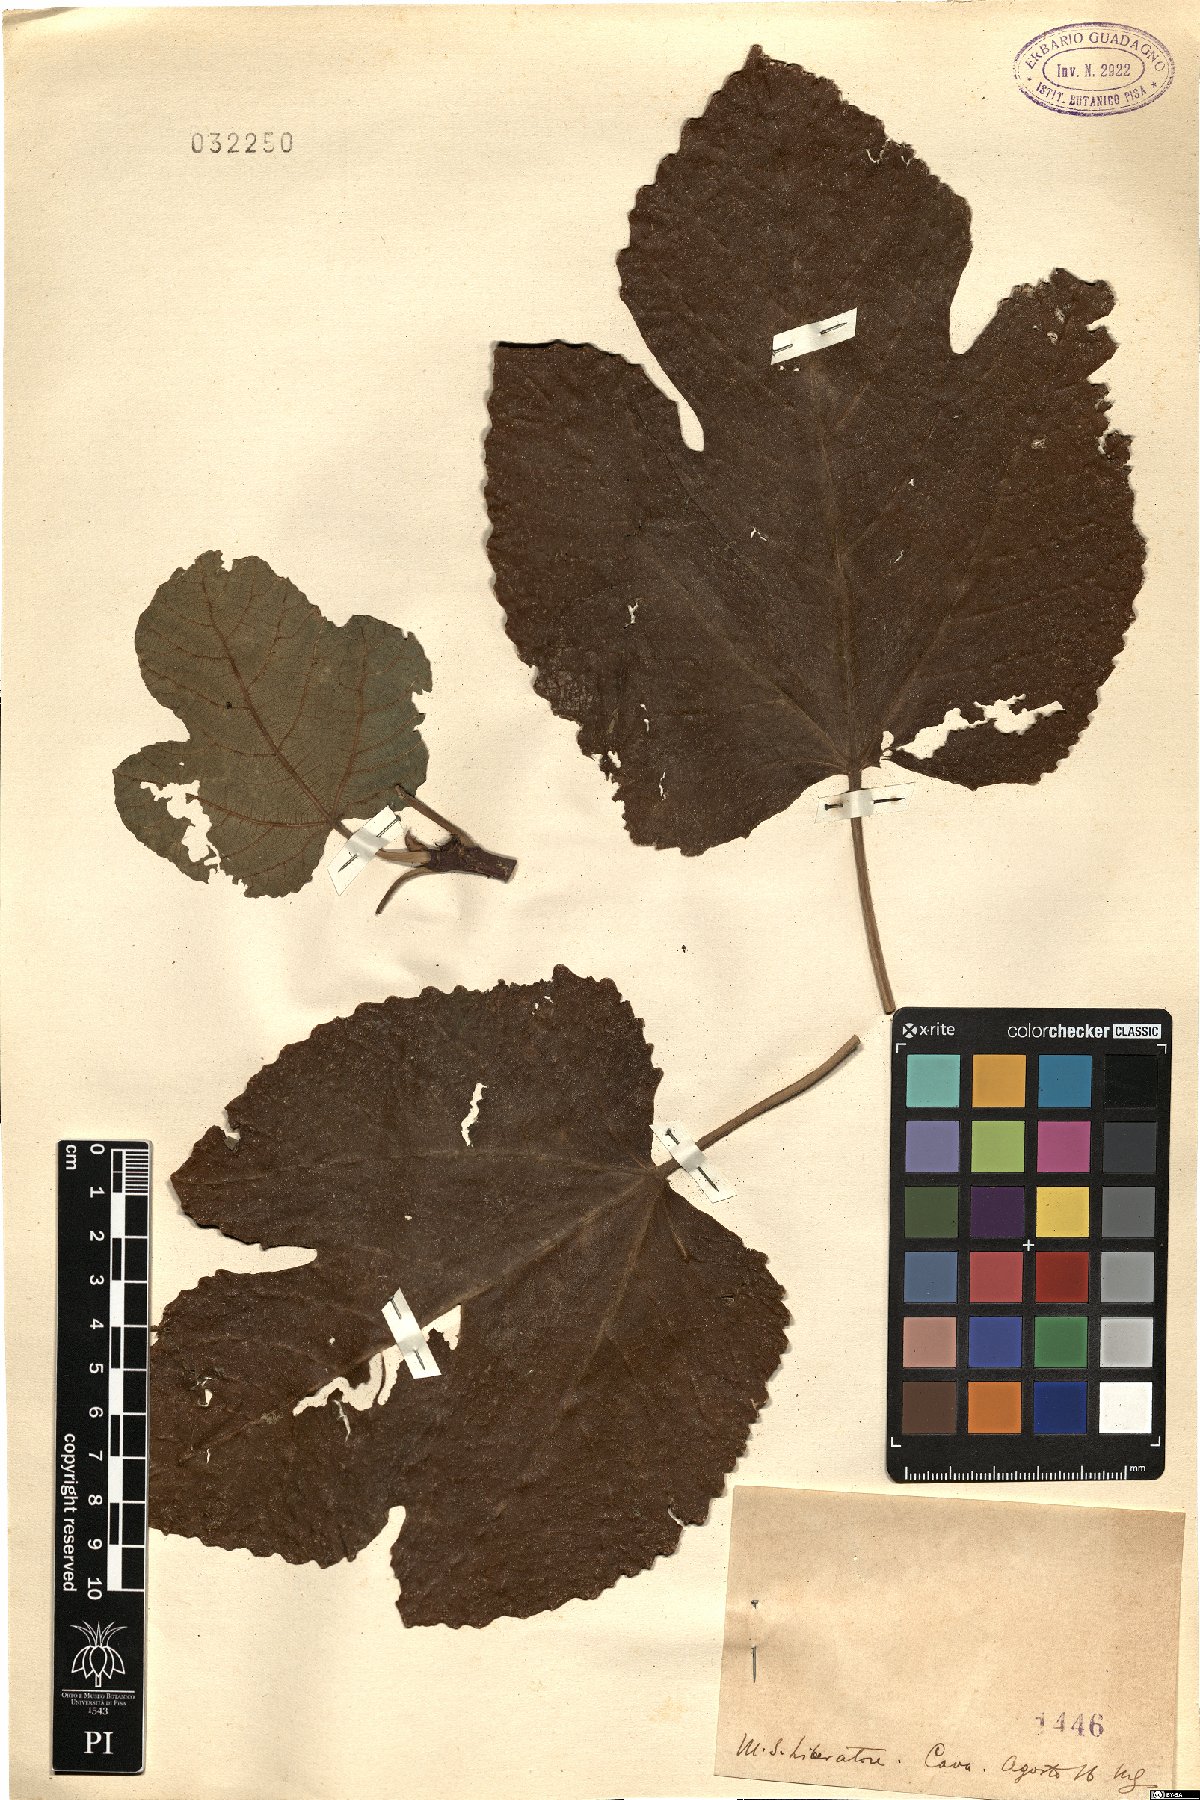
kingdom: Plantae
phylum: Tracheophyta
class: Magnoliopsida
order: Rosales
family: Moraceae
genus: Ficus
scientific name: Ficus
